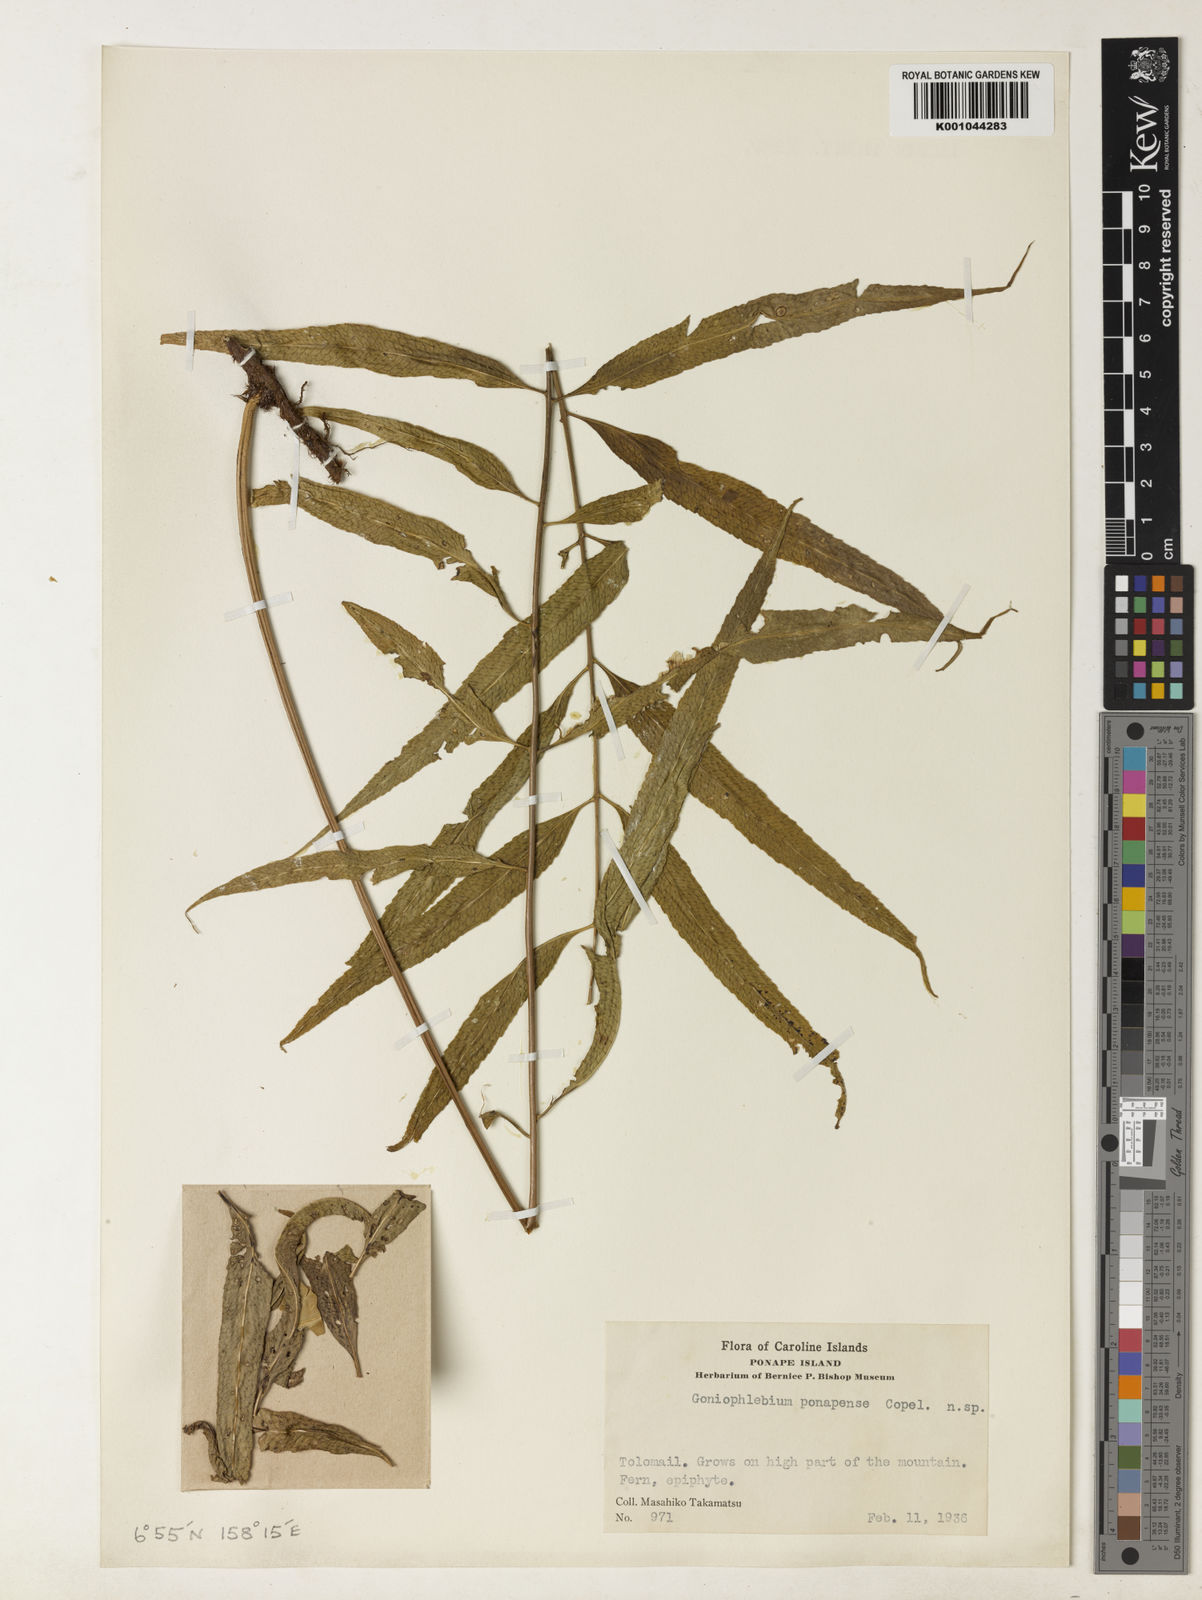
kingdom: Plantae
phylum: Tracheophyta
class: Polypodiopsida
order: Polypodiales
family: Polypodiaceae
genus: Polypodium
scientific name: Polypodium
